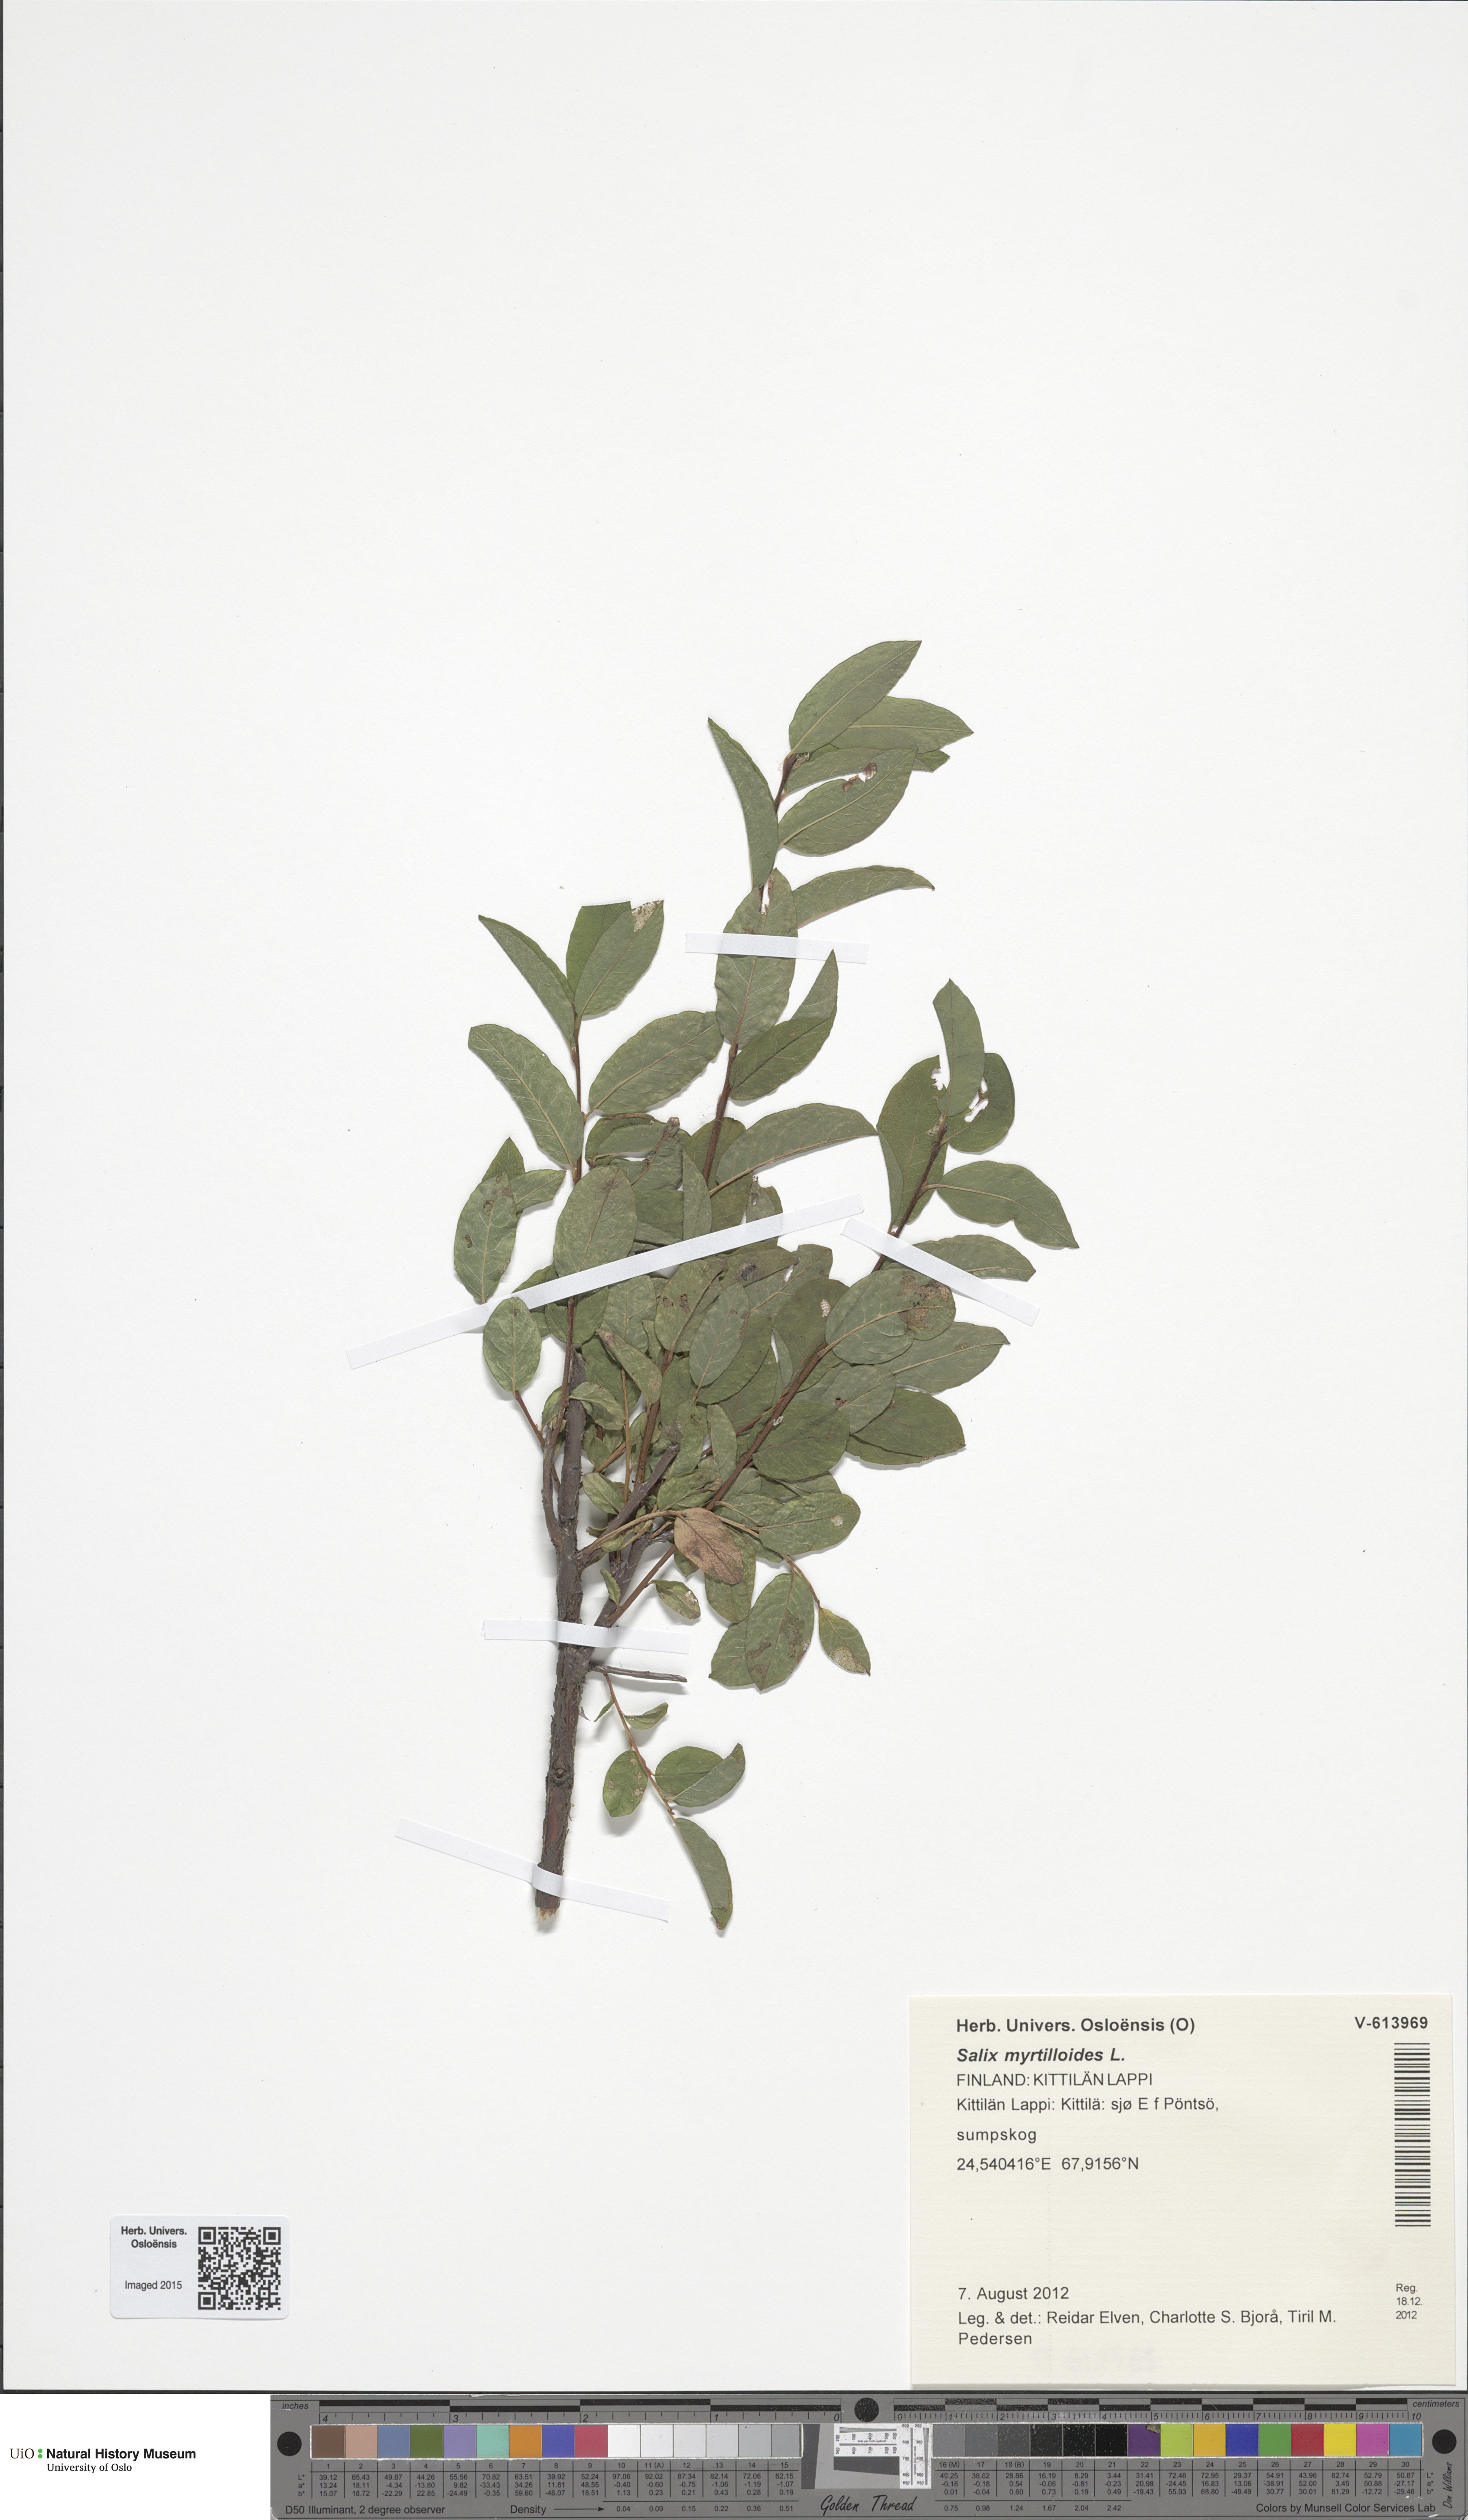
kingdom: Plantae
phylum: Tracheophyta
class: Magnoliopsida
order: Malpighiales
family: Salicaceae
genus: Salix
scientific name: Salix myrtilloides
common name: Myrtle-leaved willow
